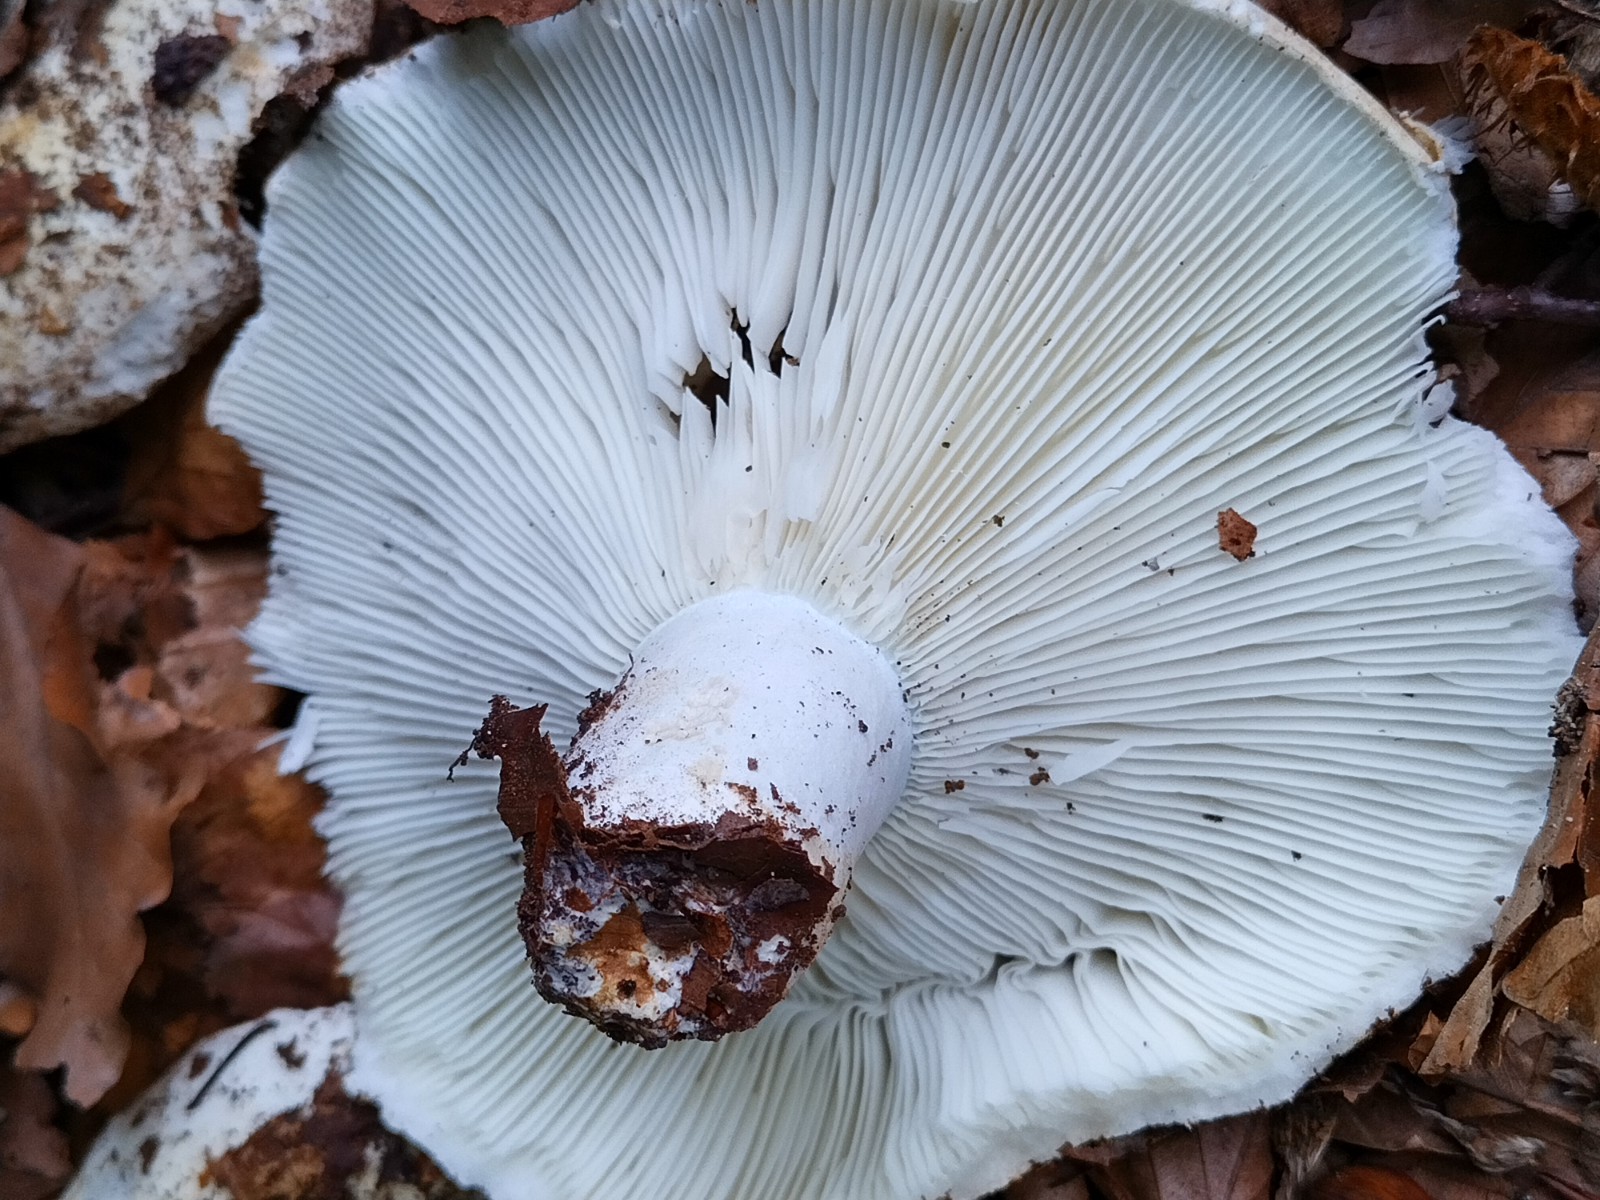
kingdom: Fungi
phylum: Basidiomycota
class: Agaricomycetes
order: Russulales
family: Russulaceae
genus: Russula
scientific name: Russula chloroides
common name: grønhalset tragt-skørhat
